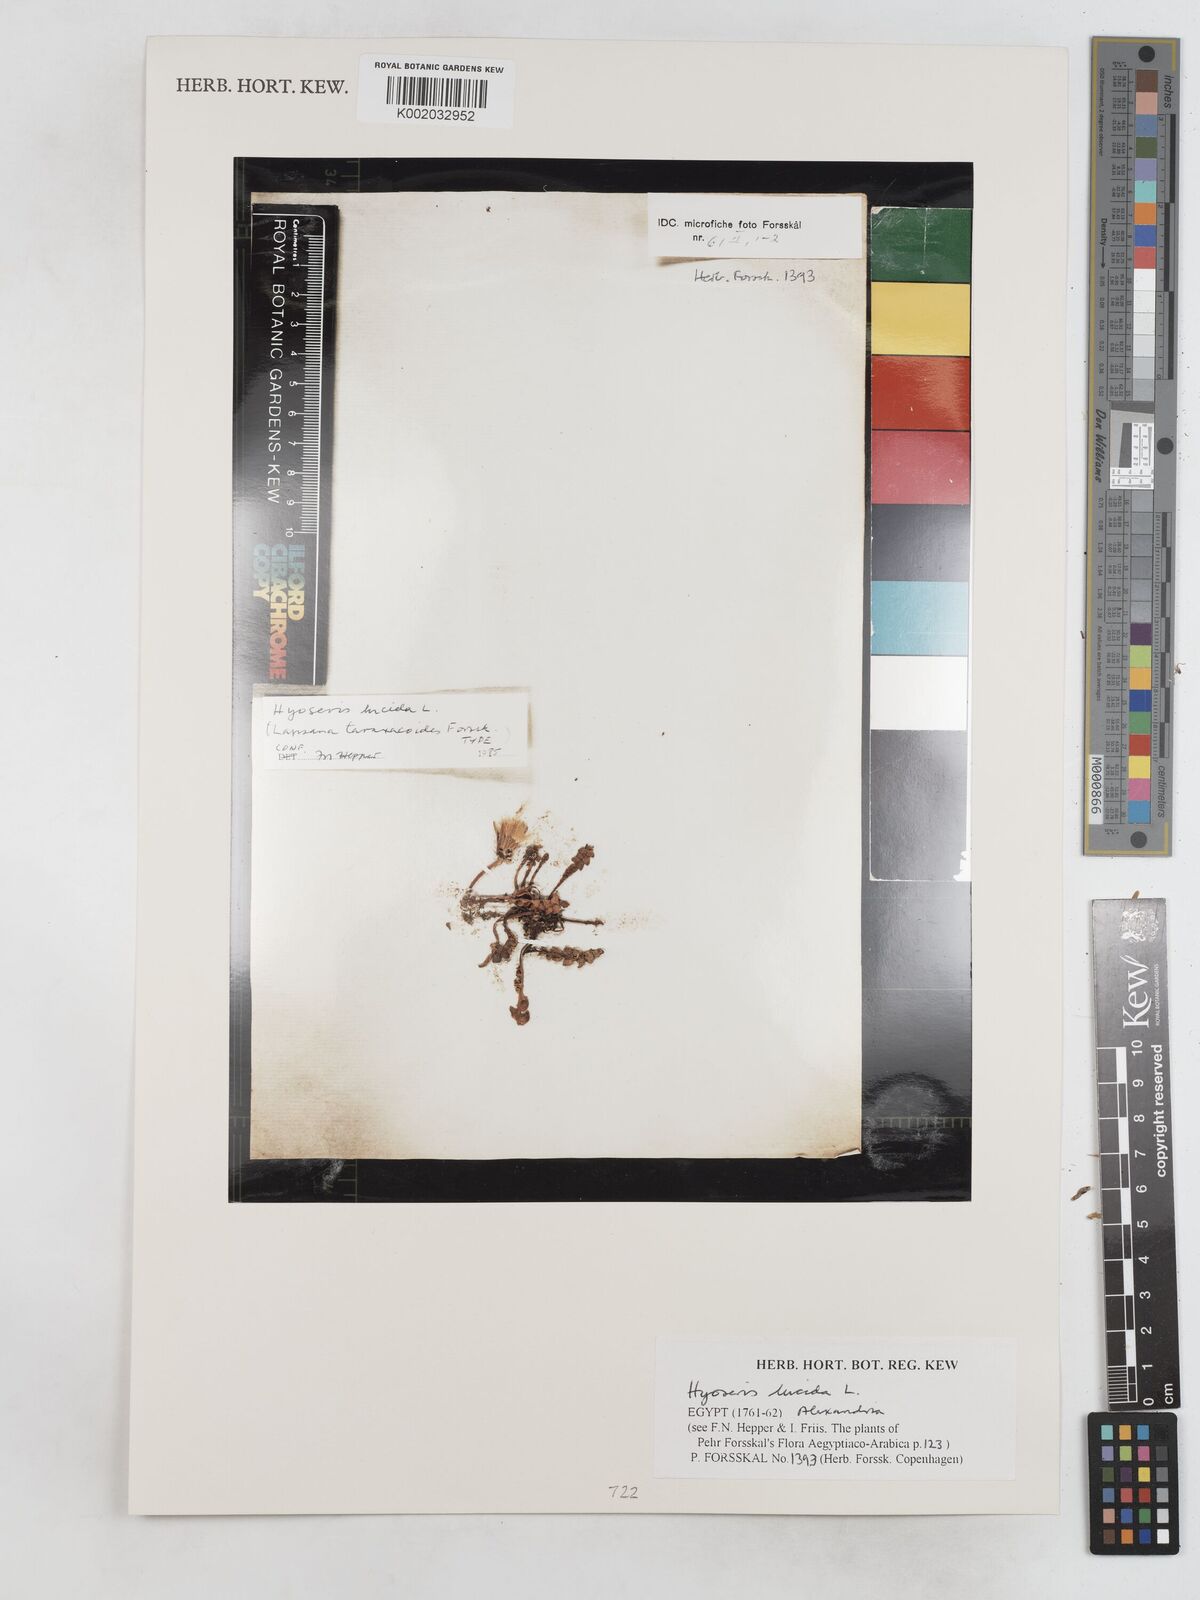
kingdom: Plantae
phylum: Tracheophyta
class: Magnoliopsida
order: Asterales
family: Asteraceae
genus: Hyoseris
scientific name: Hyoseris lucida
